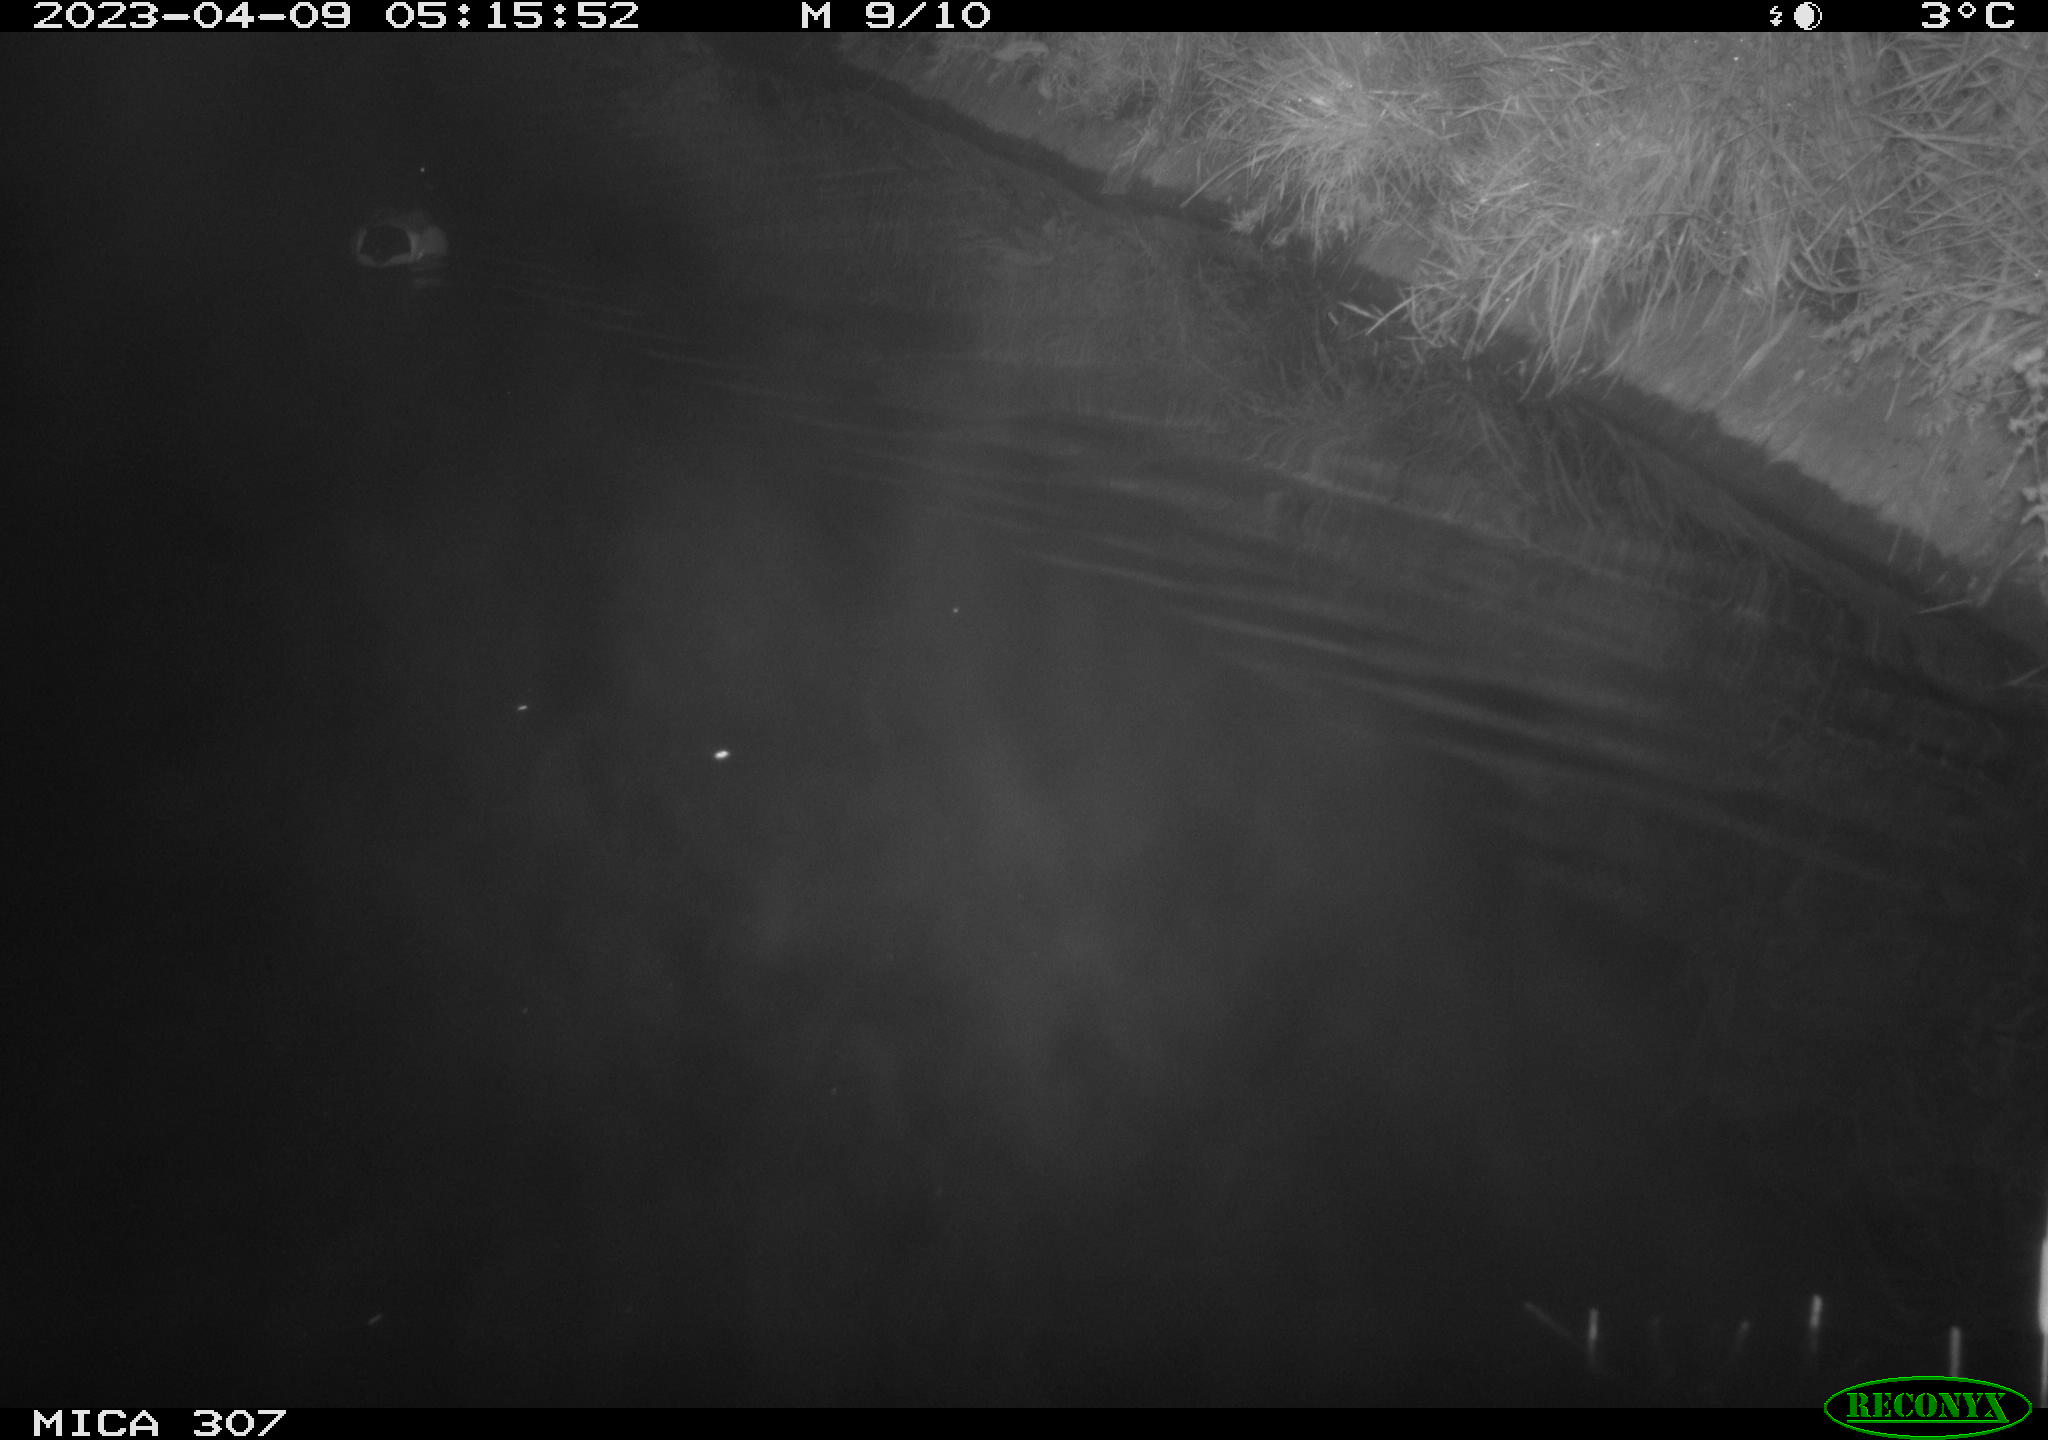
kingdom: Animalia
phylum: Chordata
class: Aves
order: Anseriformes
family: Anatidae
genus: Anas
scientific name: Anas
